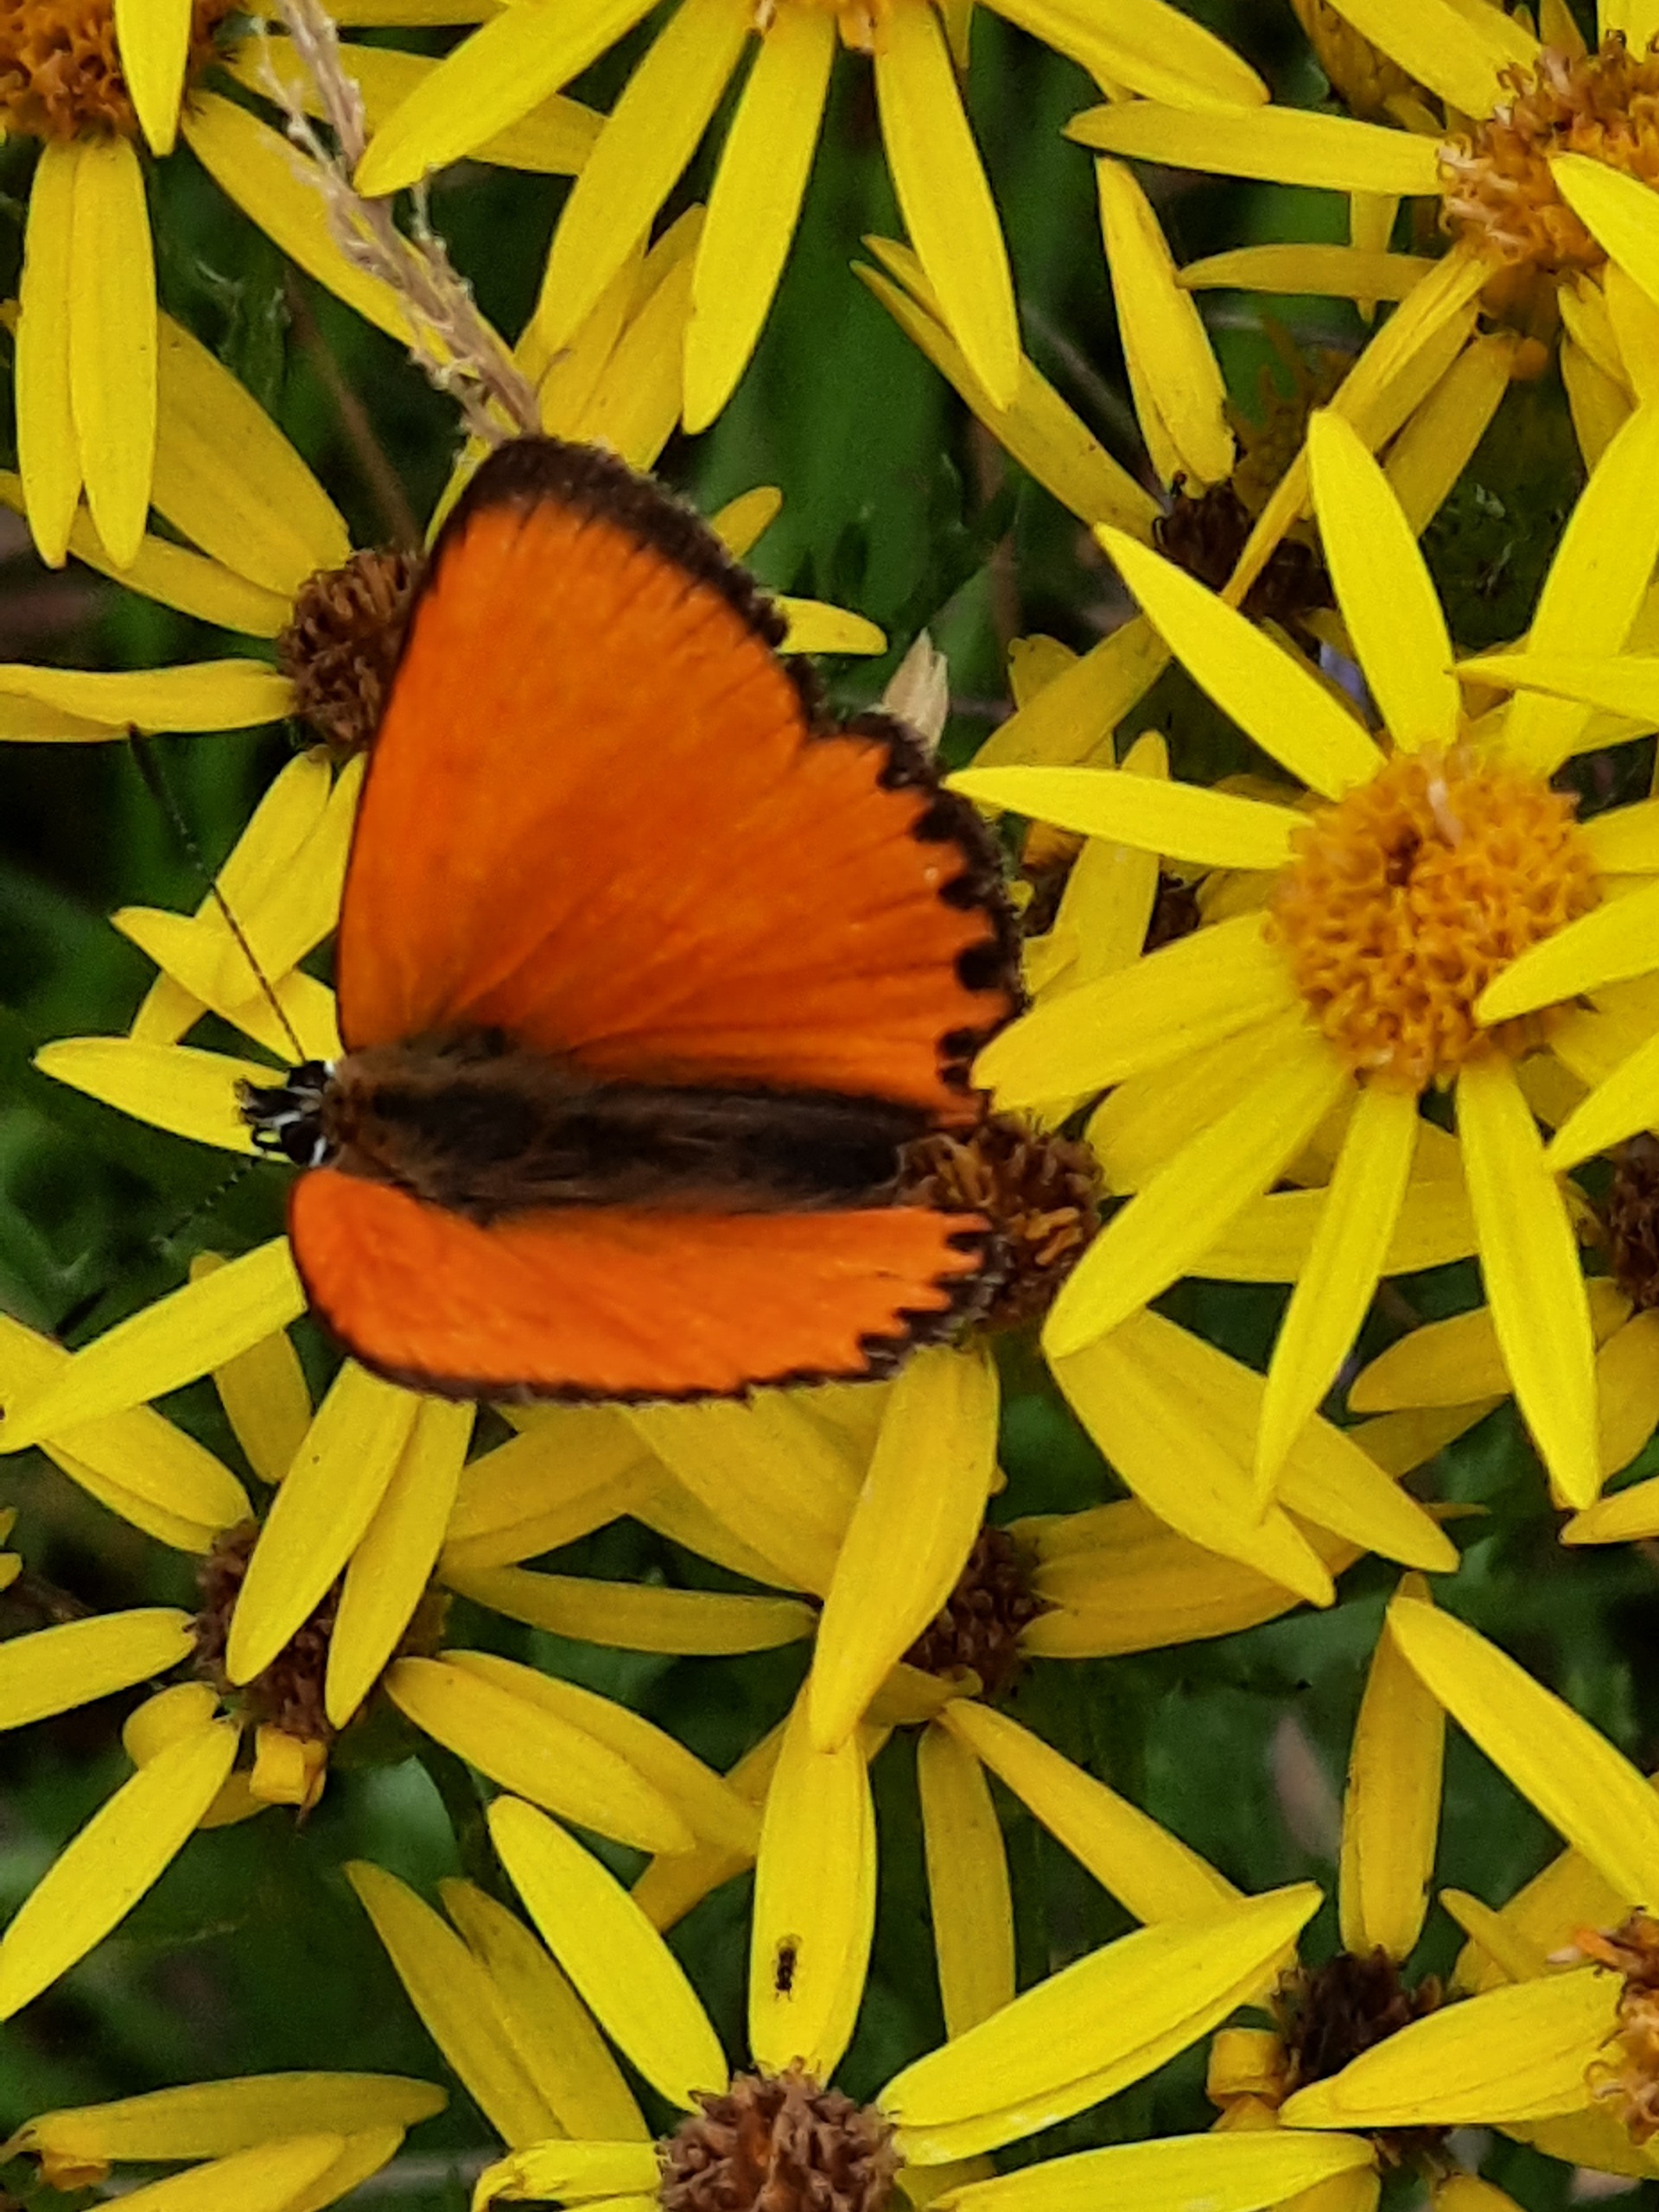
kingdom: Animalia
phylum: Arthropoda
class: Insecta
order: Lepidoptera
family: Lycaenidae
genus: Lycaena
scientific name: Lycaena virgaureae
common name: Dukatsommerfugl
